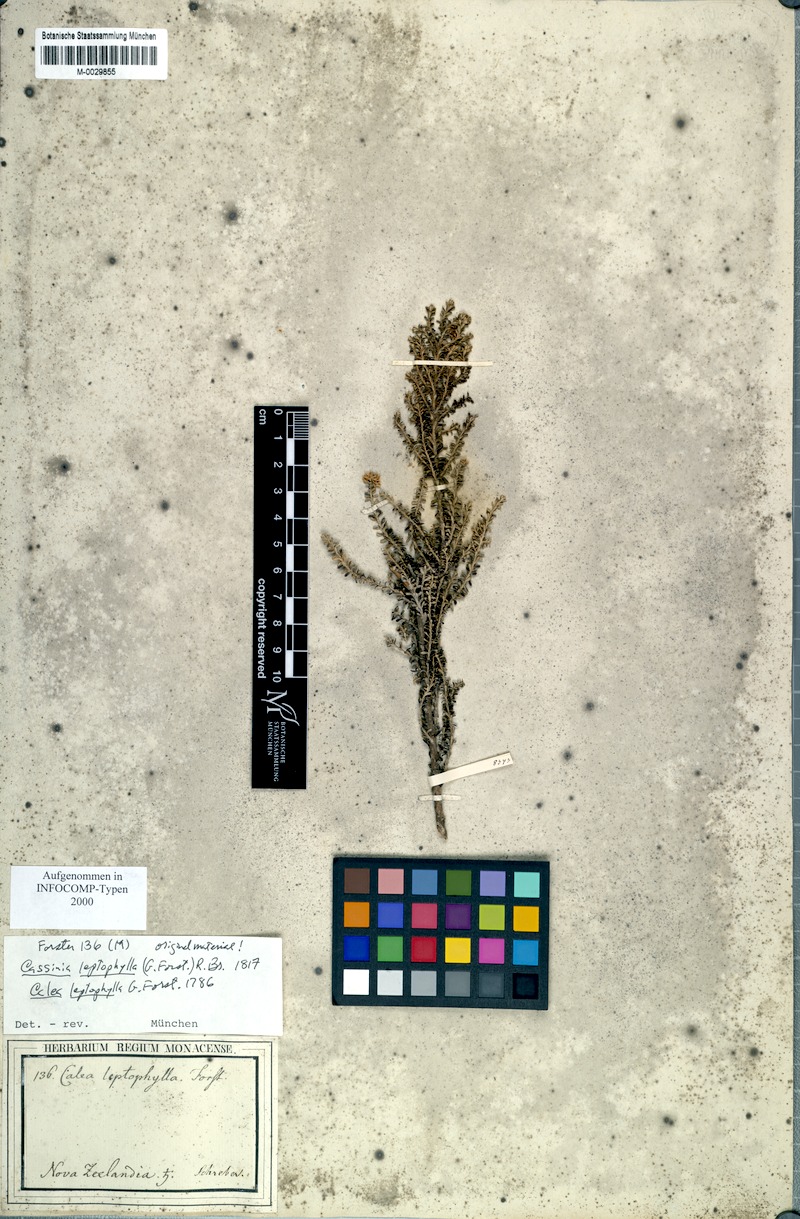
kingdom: Plantae
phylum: Tracheophyta
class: Magnoliopsida
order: Asterales
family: Asteraceae
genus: Ozothamnus
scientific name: Ozothamnus leptophyllus
